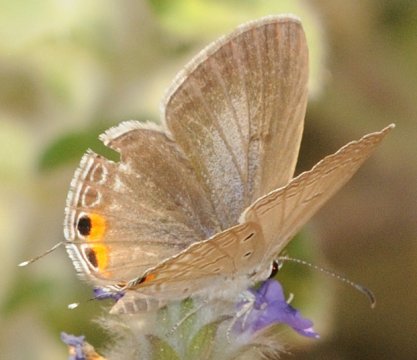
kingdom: Animalia
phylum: Arthropoda
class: Insecta
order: Lepidoptera
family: Lycaenidae
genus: Euchrysops
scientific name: Euchrysops
